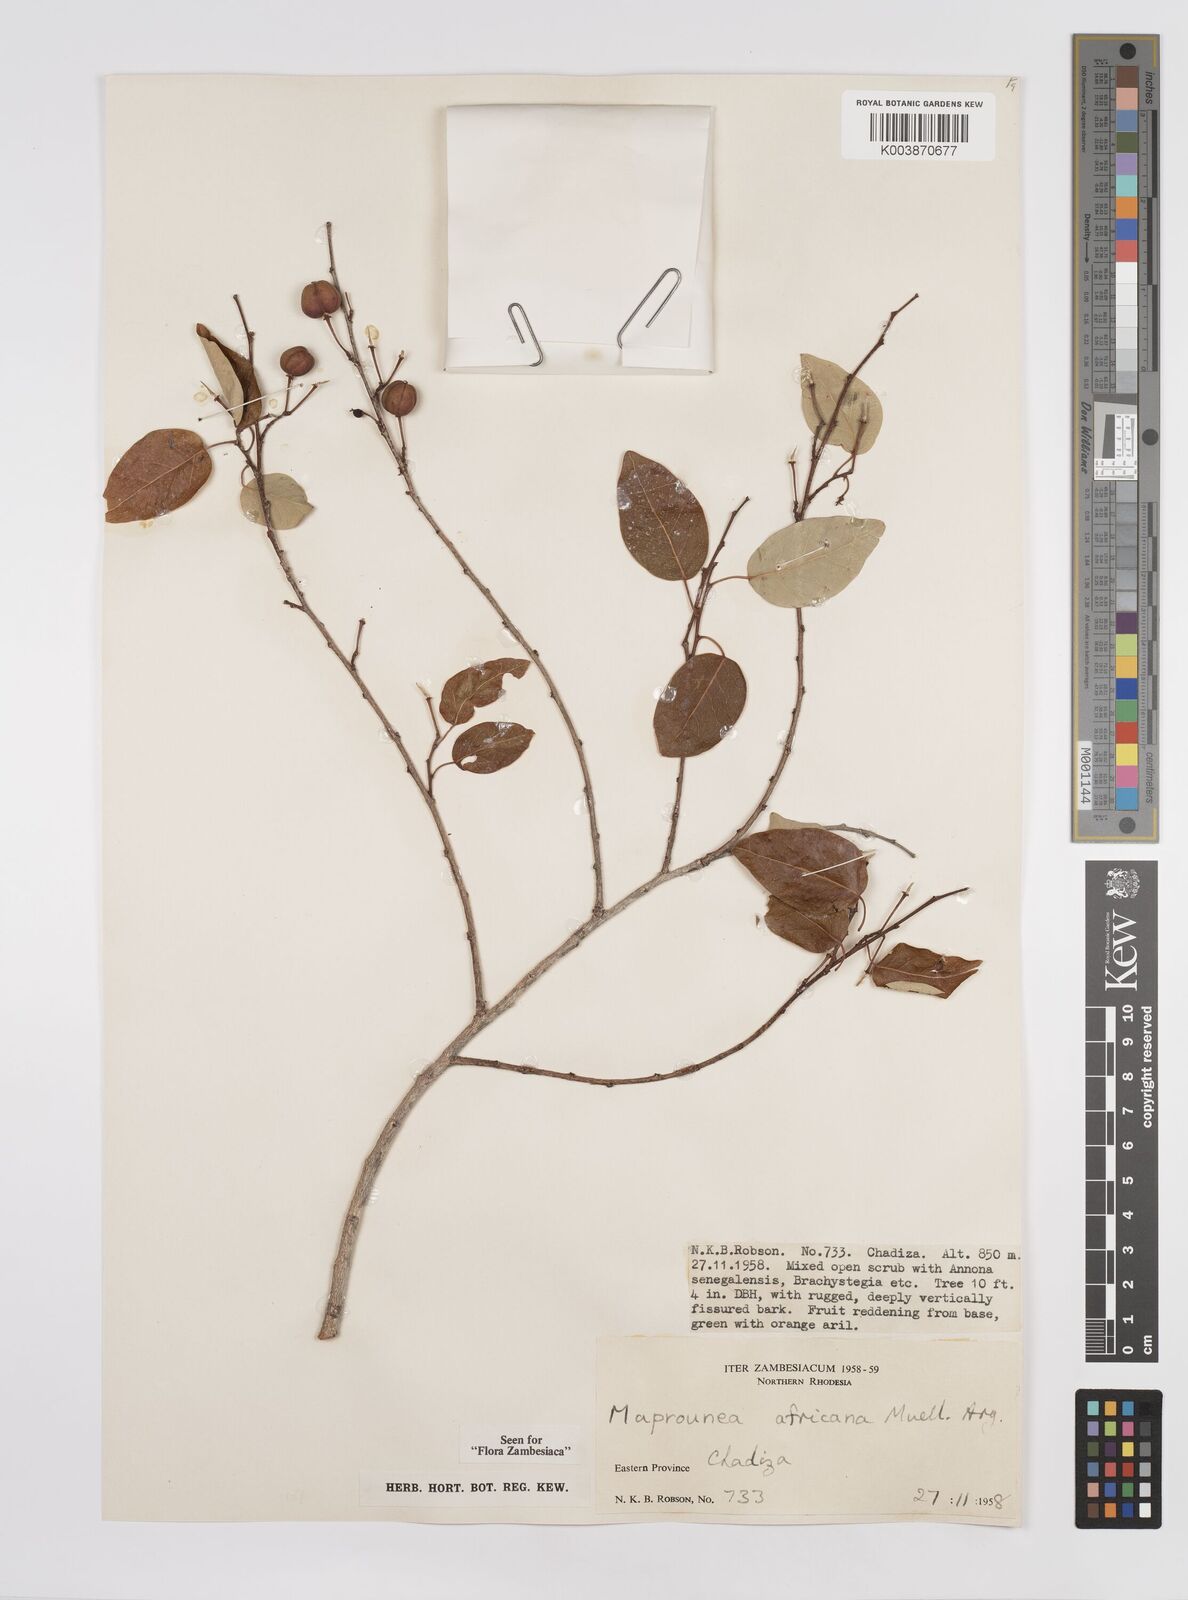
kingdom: Plantae
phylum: Tracheophyta
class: Magnoliopsida
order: Malpighiales
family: Euphorbiaceae
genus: Maprounea
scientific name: Maprounea africana
